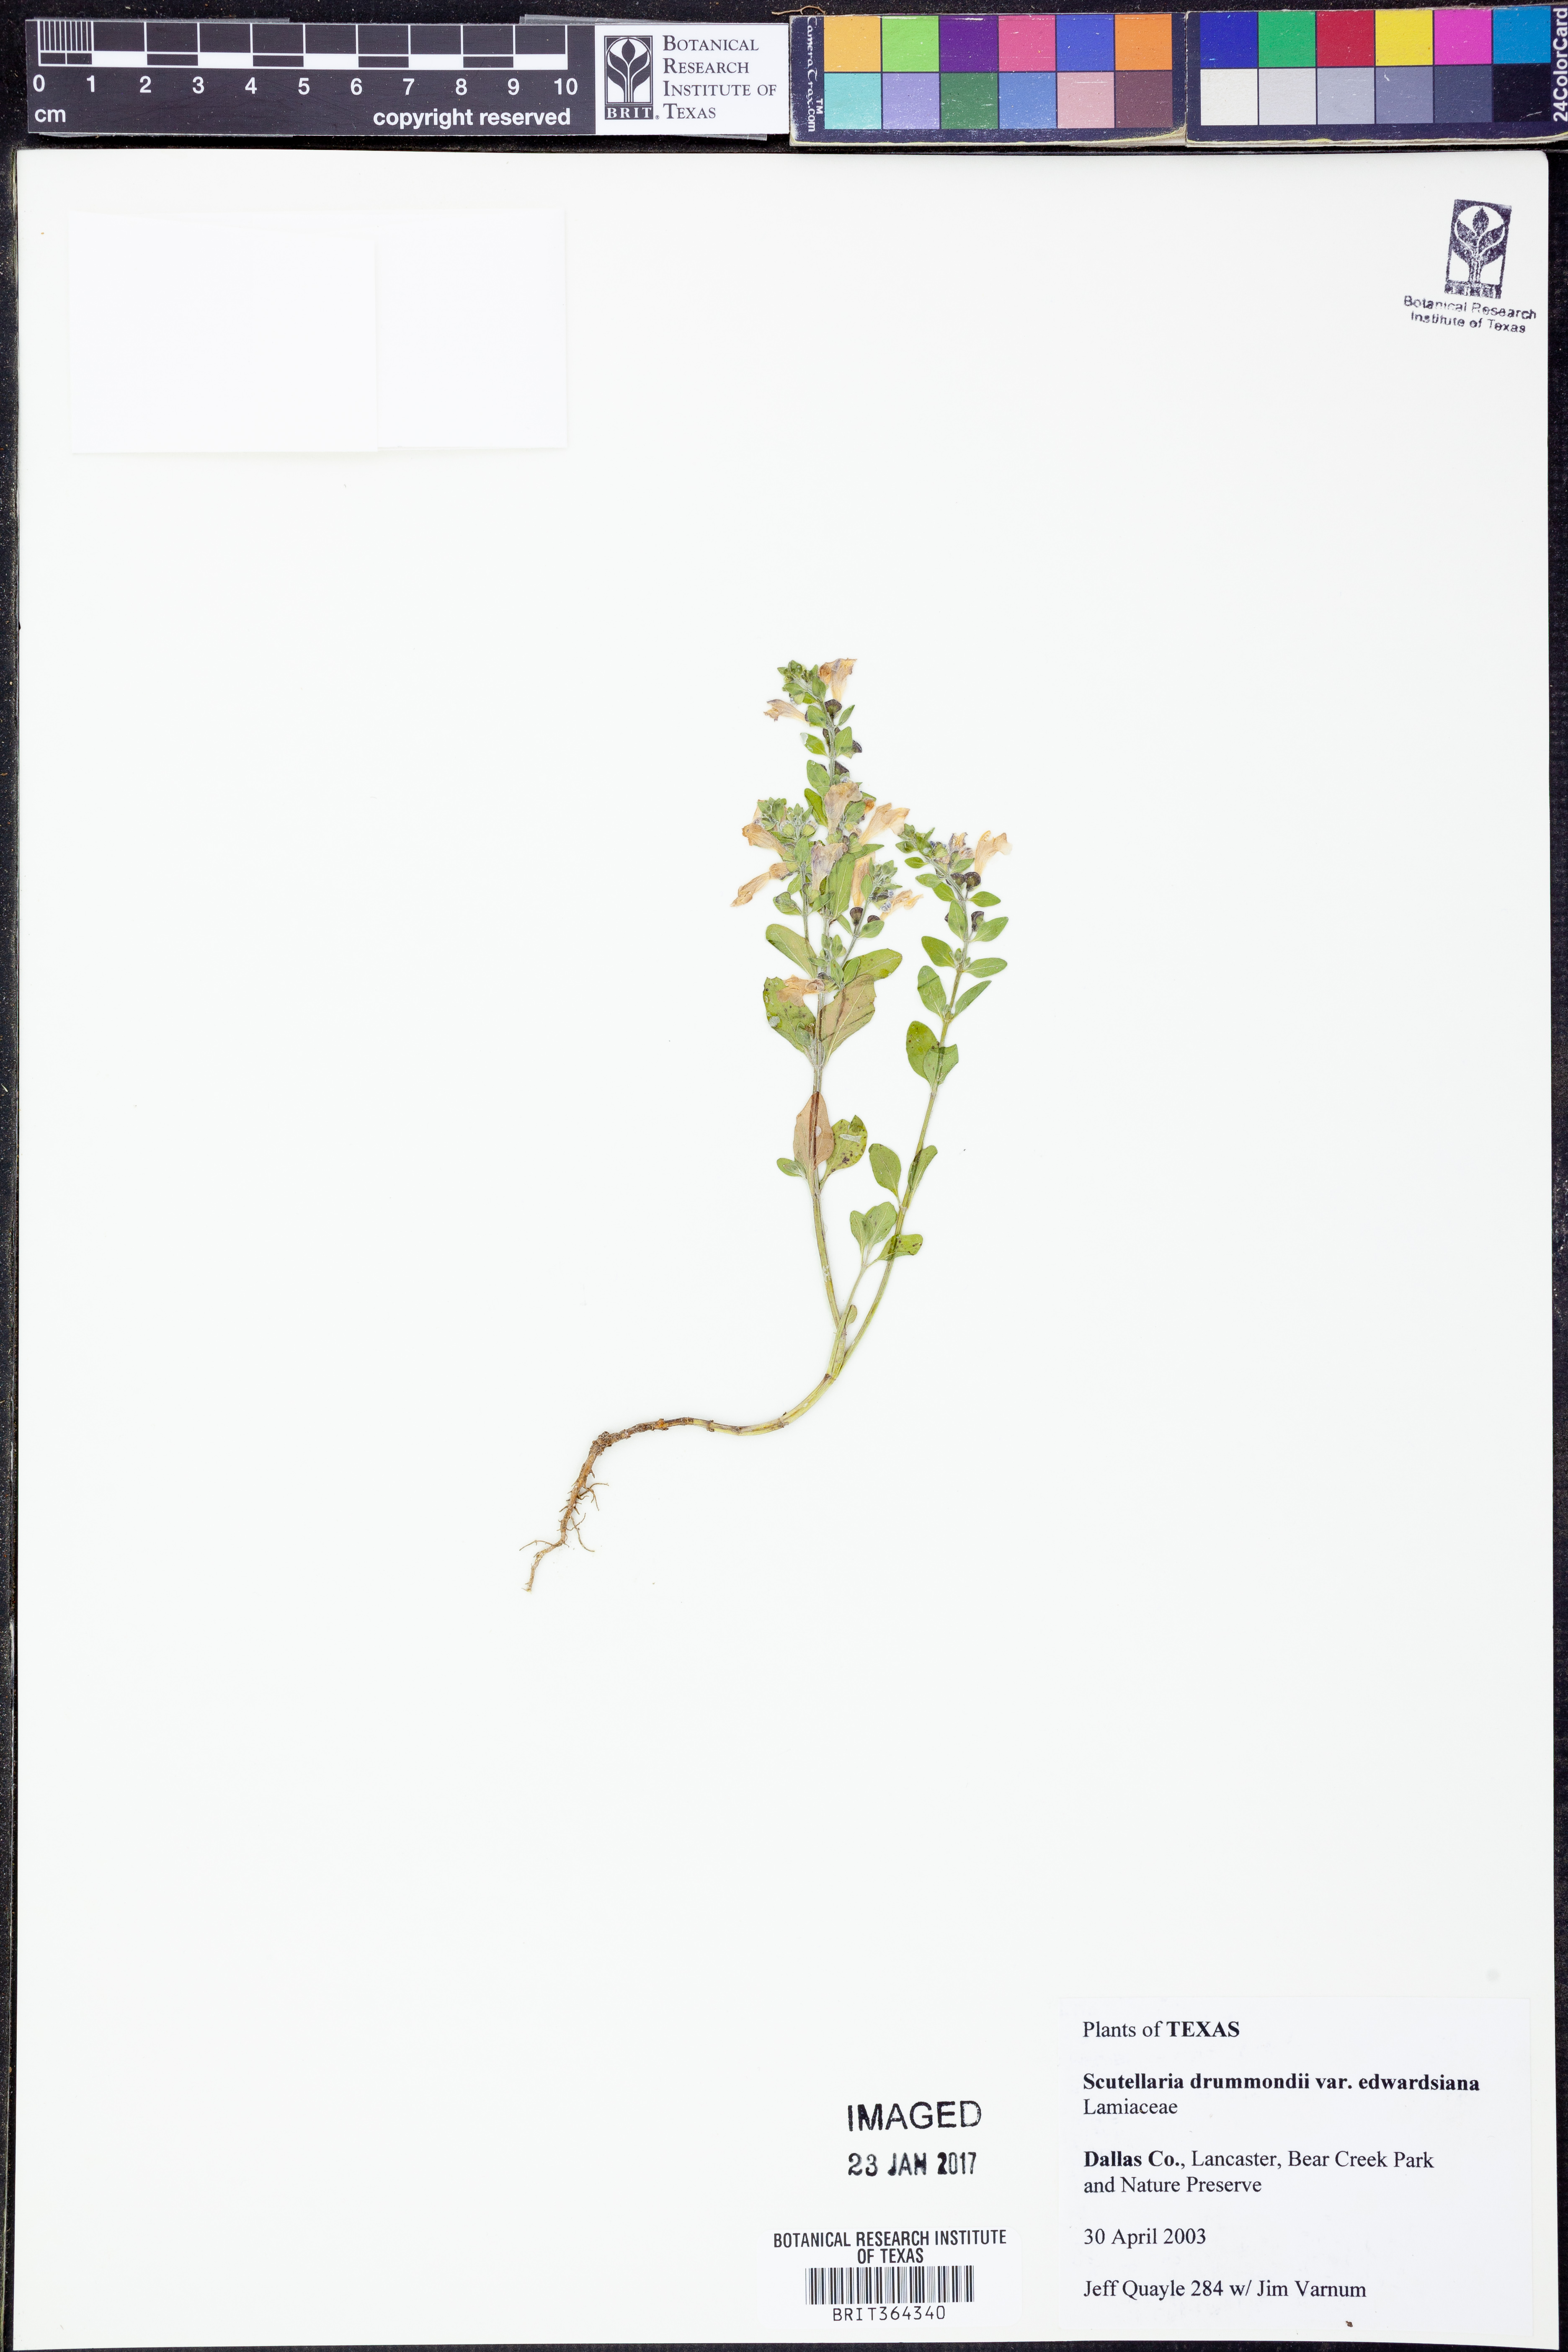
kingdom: Plantae
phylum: Tracheophyta
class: Magnoliopsida
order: Lamiales
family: Lamiaceae
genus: Scutellaria
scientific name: Scutellaria drummondii
